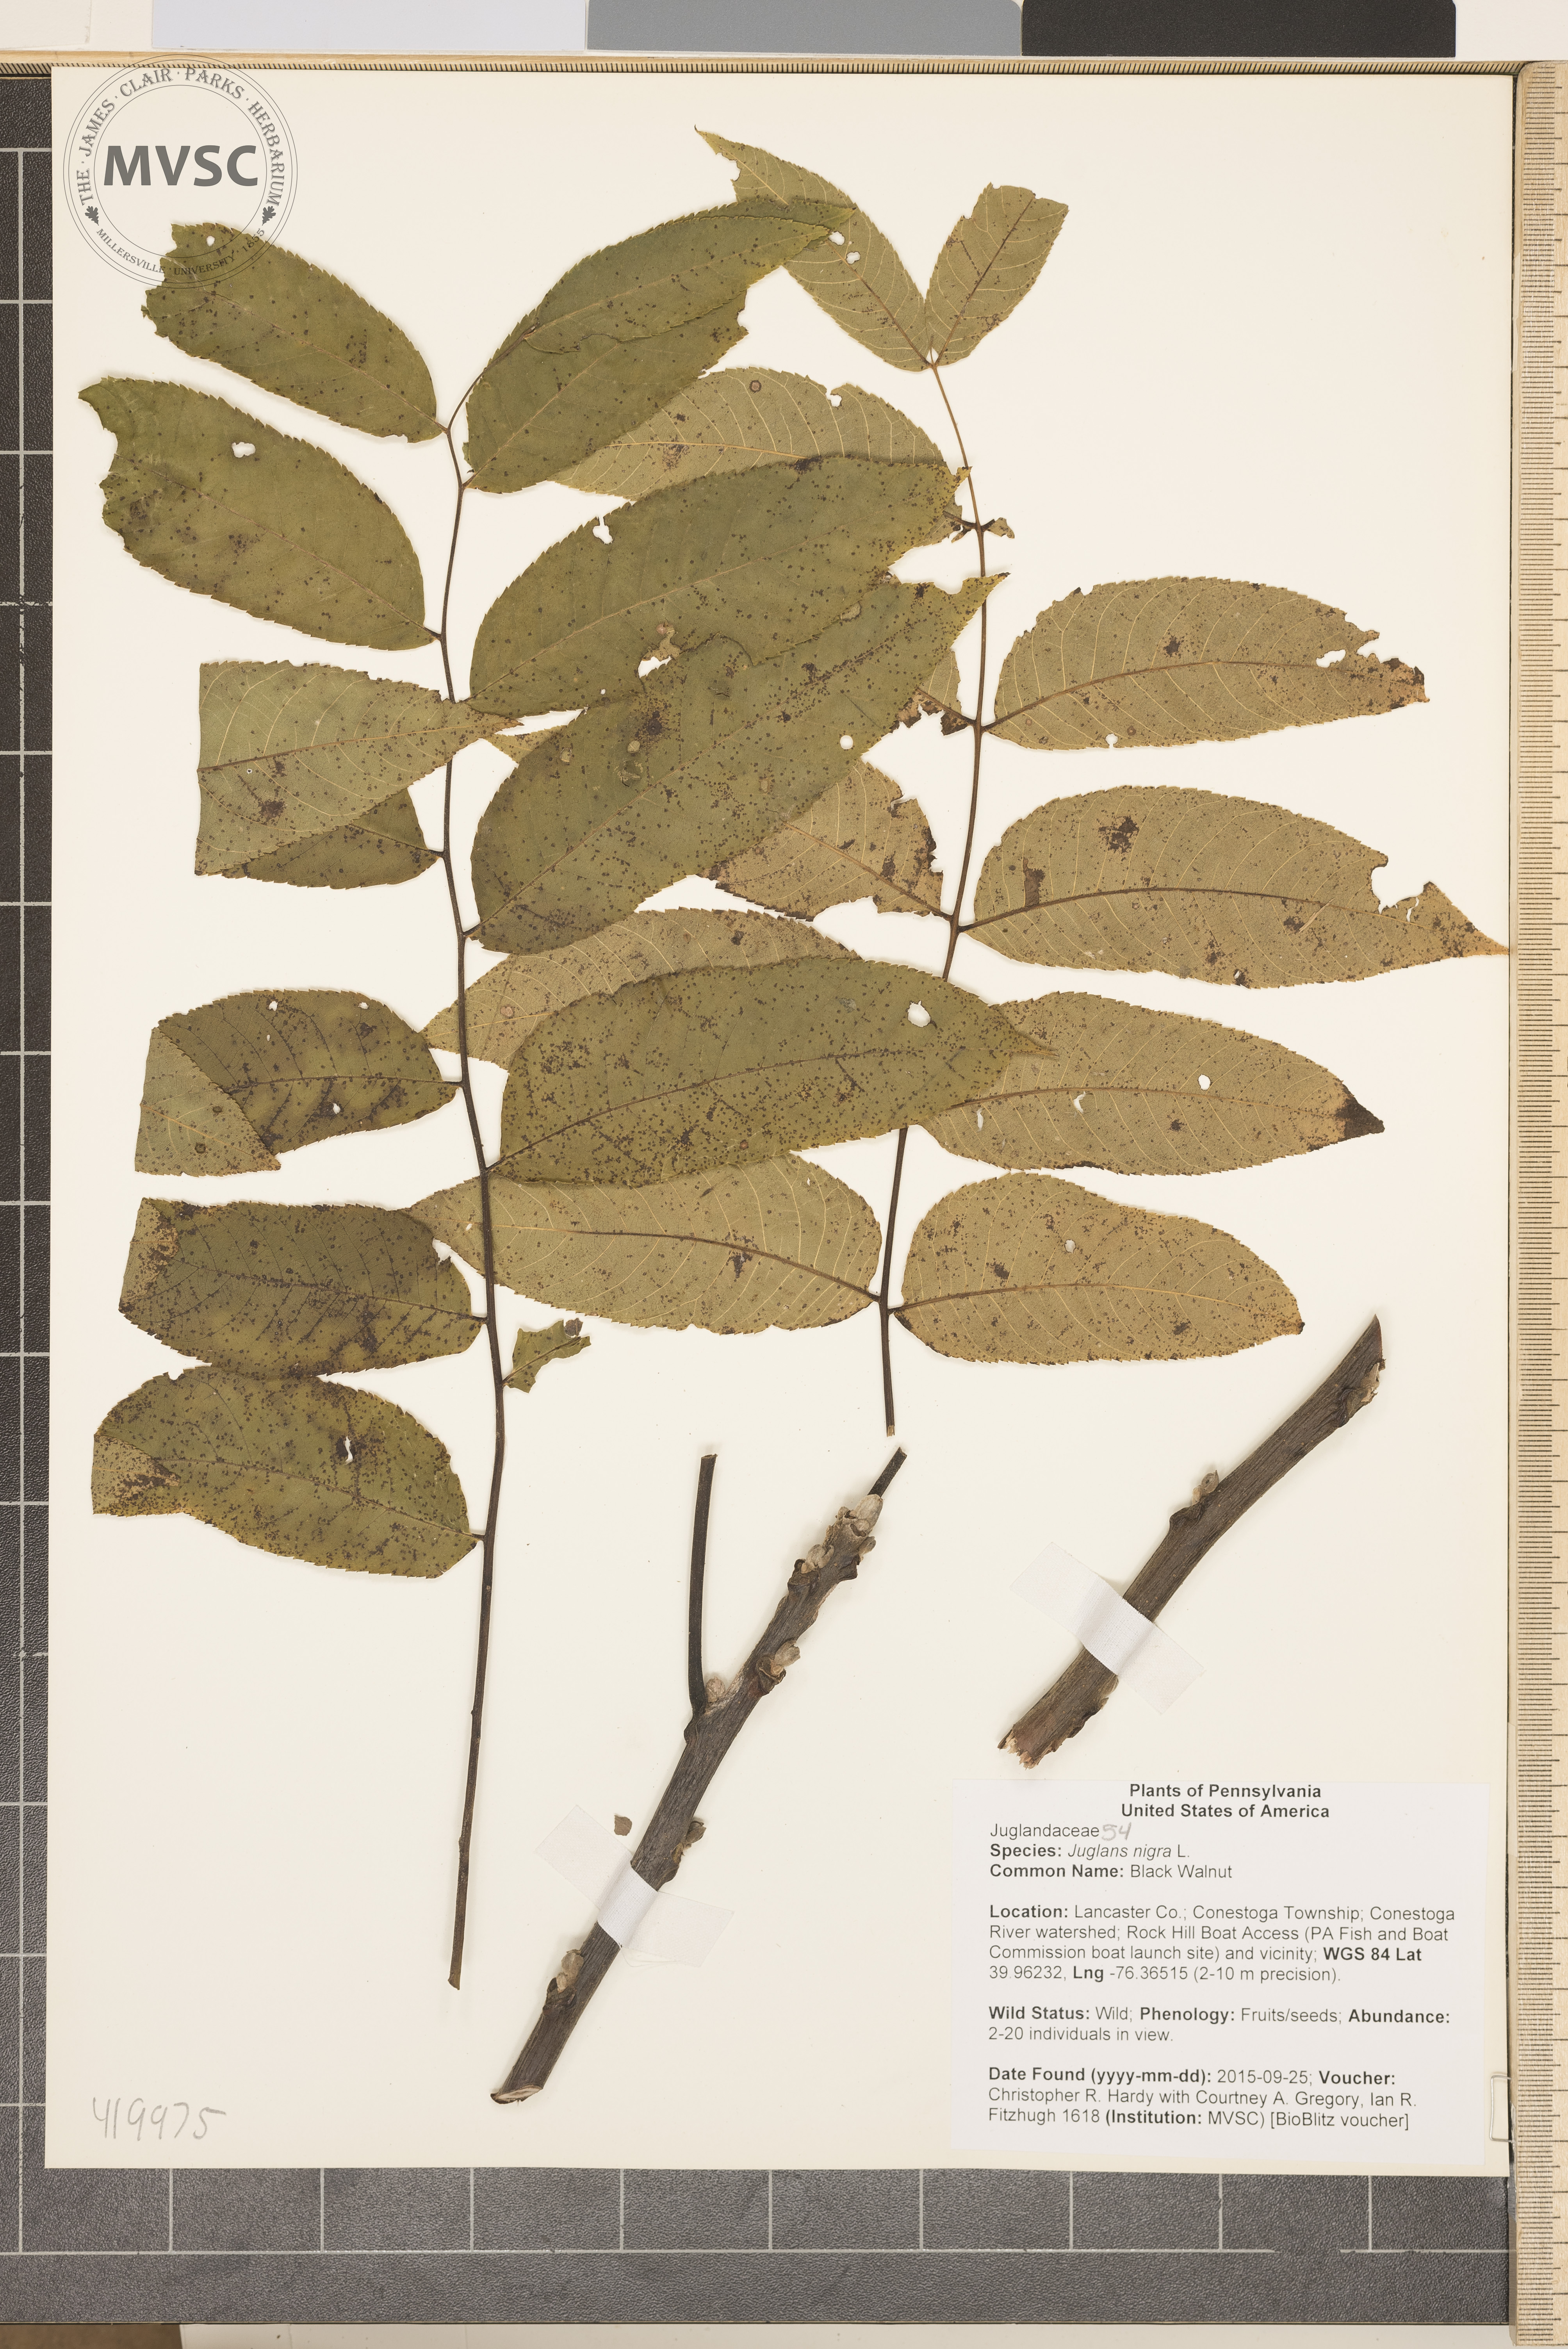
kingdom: Plantae
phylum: Tracheophyta
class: Magnoliopsida
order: Fagales
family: Juglandaceae
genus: Juglans
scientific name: Juglans nigra
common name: Black Walnut
